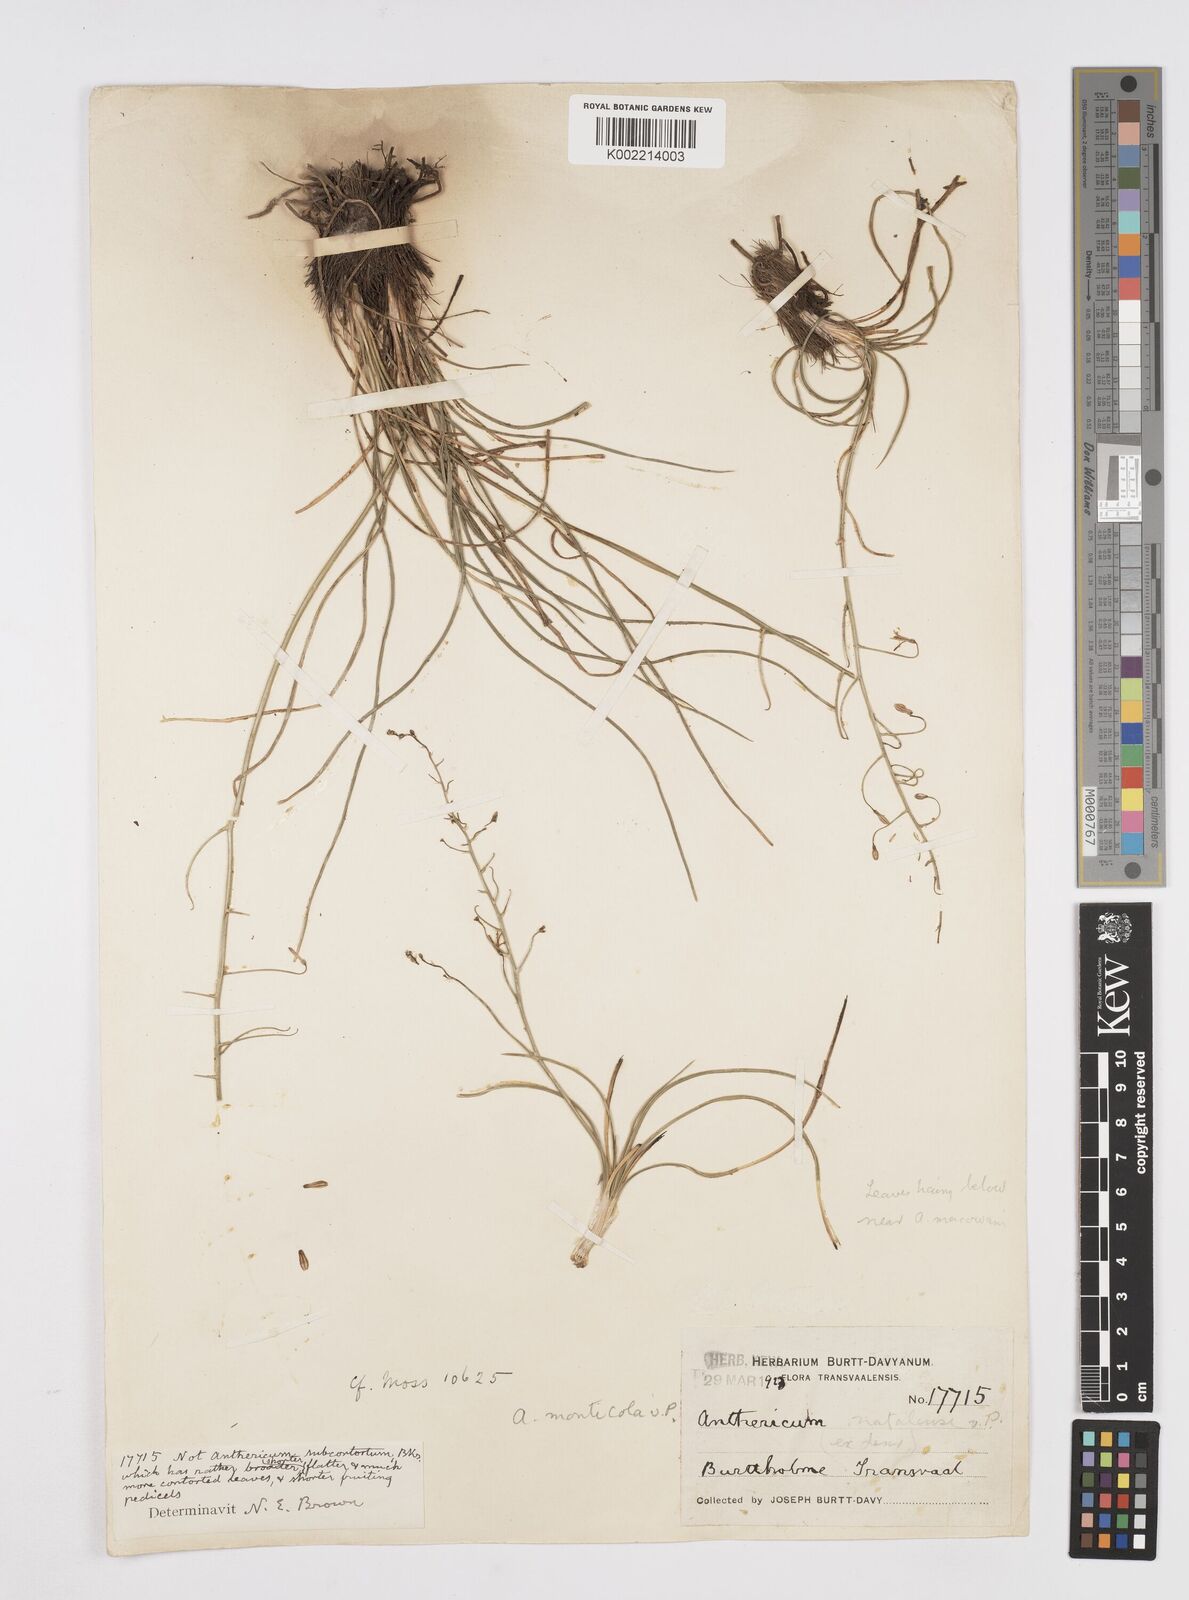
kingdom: Plantae
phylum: Tracheophyta
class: Liliopsida
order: Asparagales
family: Asphodelaceae
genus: Trachyandra
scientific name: Trachyandra asperata
